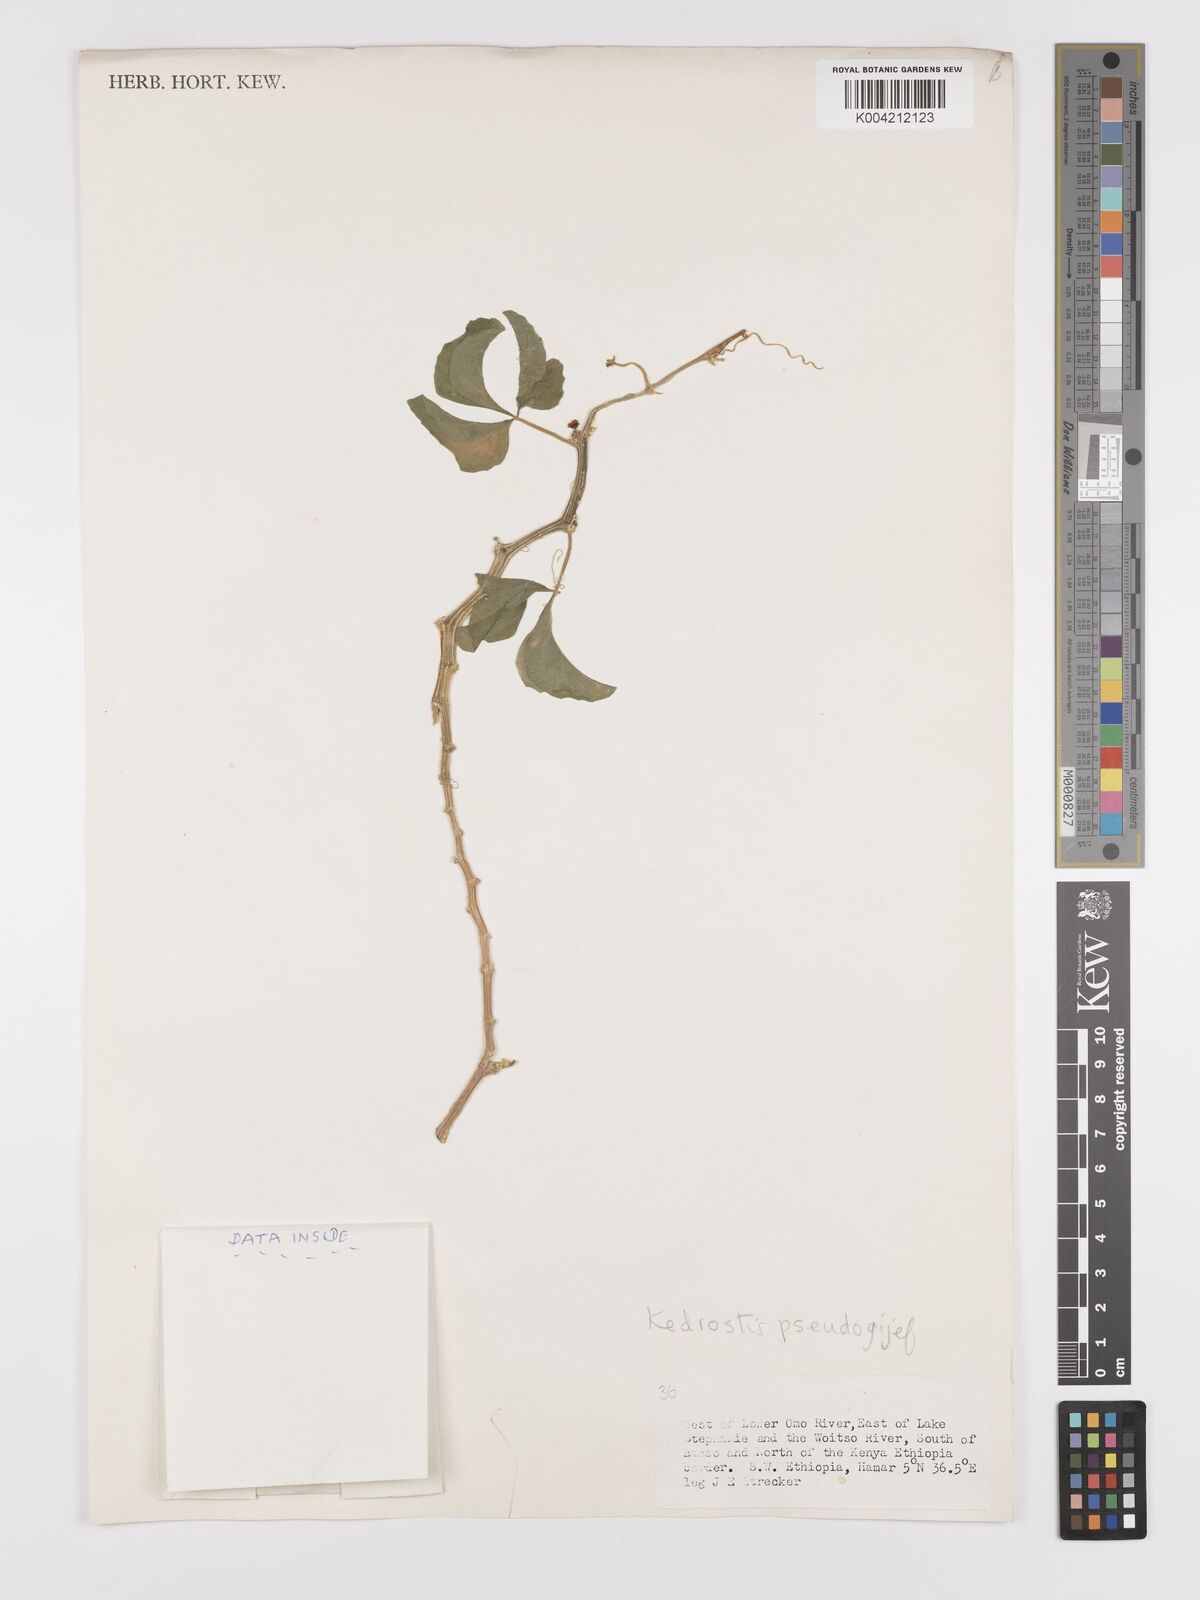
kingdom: Plantae
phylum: Tracheophyta
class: Magnoliopsida
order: Cucurbitales
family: Cucurbitaceae
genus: Kedrostis
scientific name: Kedrostis pseudogijef
